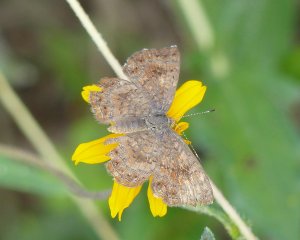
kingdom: Animalia
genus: Calephelis
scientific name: Calephelis perditalis
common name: Rounded Metalmark
